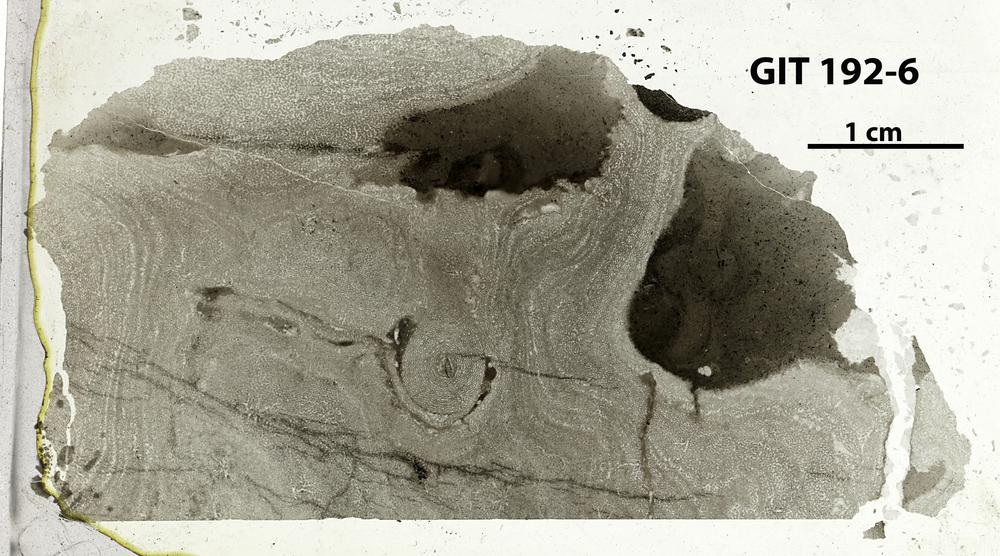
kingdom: Animalia
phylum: Porifera
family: Ecclimadictyidae
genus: Ecclimadictyon
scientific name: Ecclimadictyon macrotuberculatum
